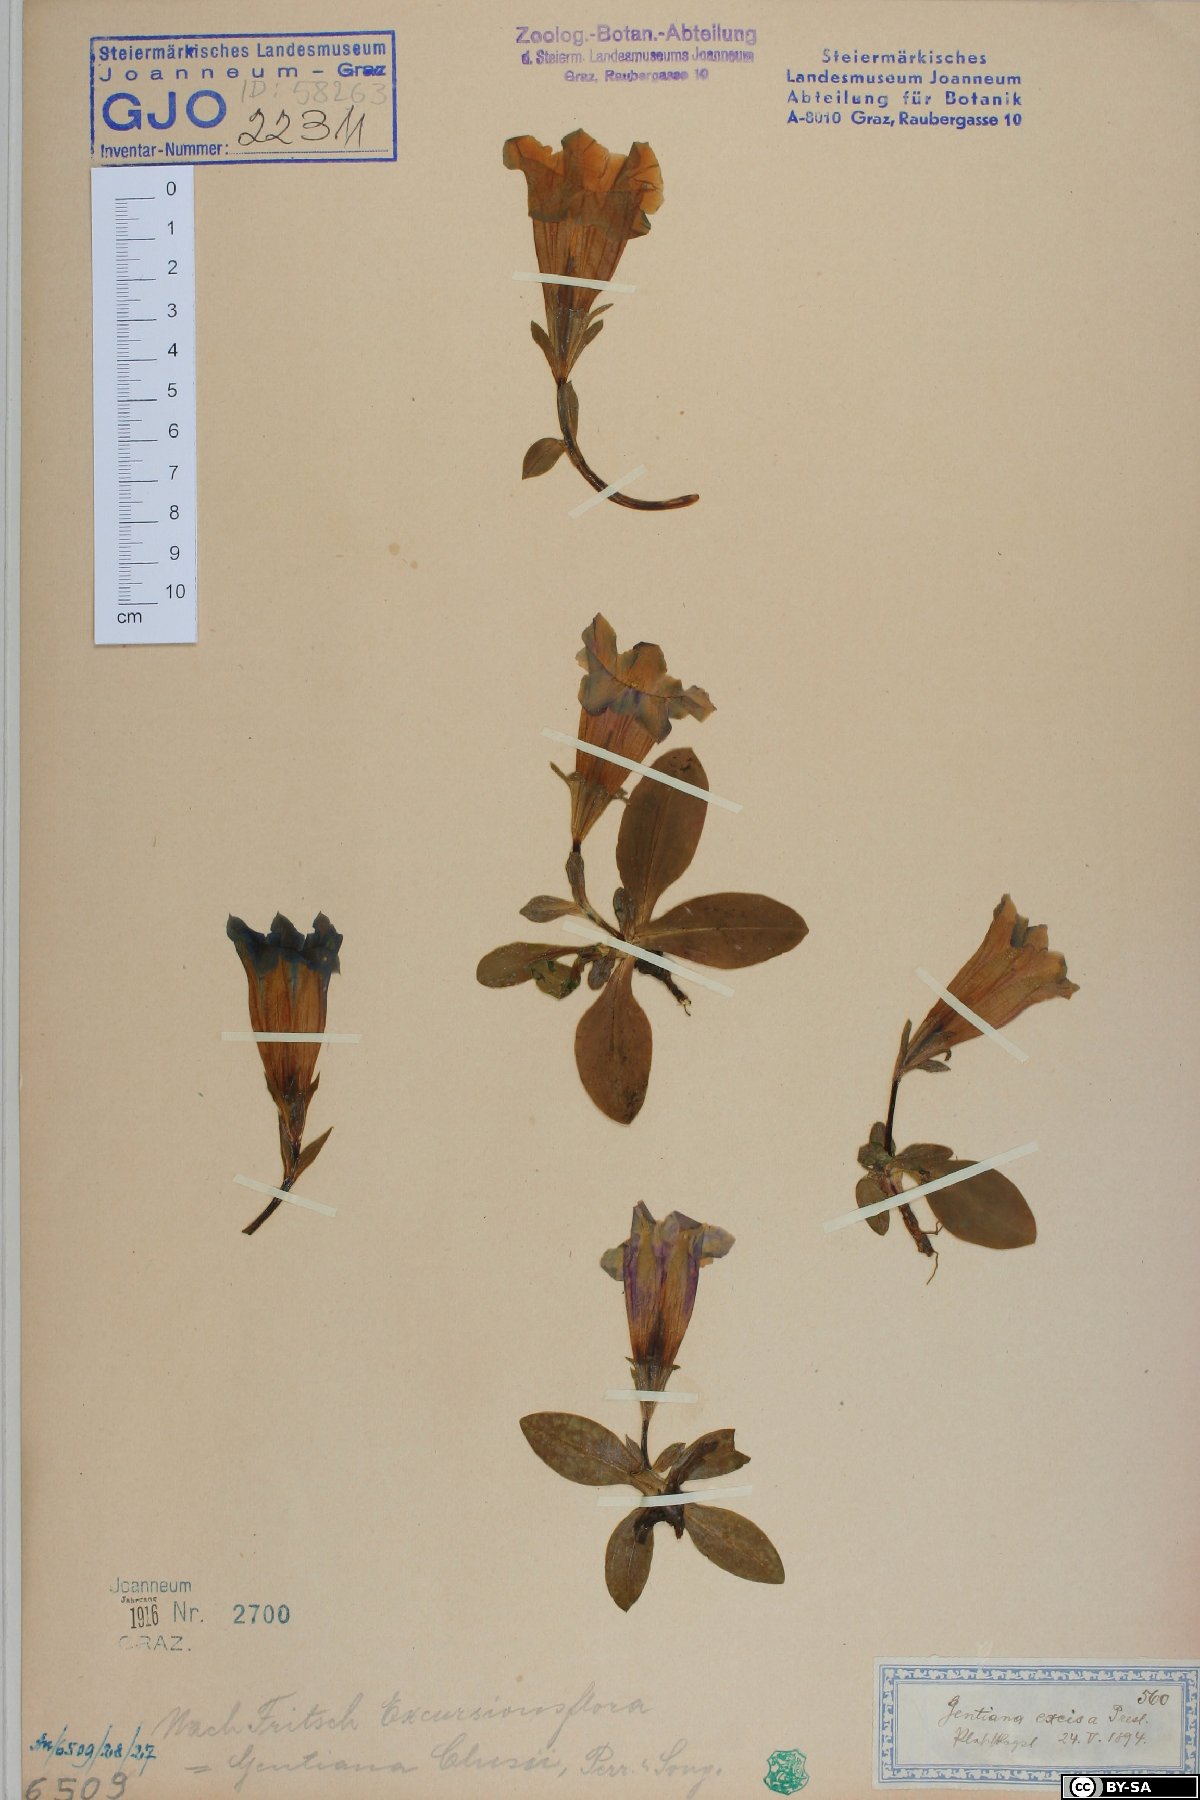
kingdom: Plantae
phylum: Tracheophyta
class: Magnoliopsida
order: Gentianales
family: Gentianaceae
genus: Gentiana
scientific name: Gentiana acaulis
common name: Trumpet gentian
